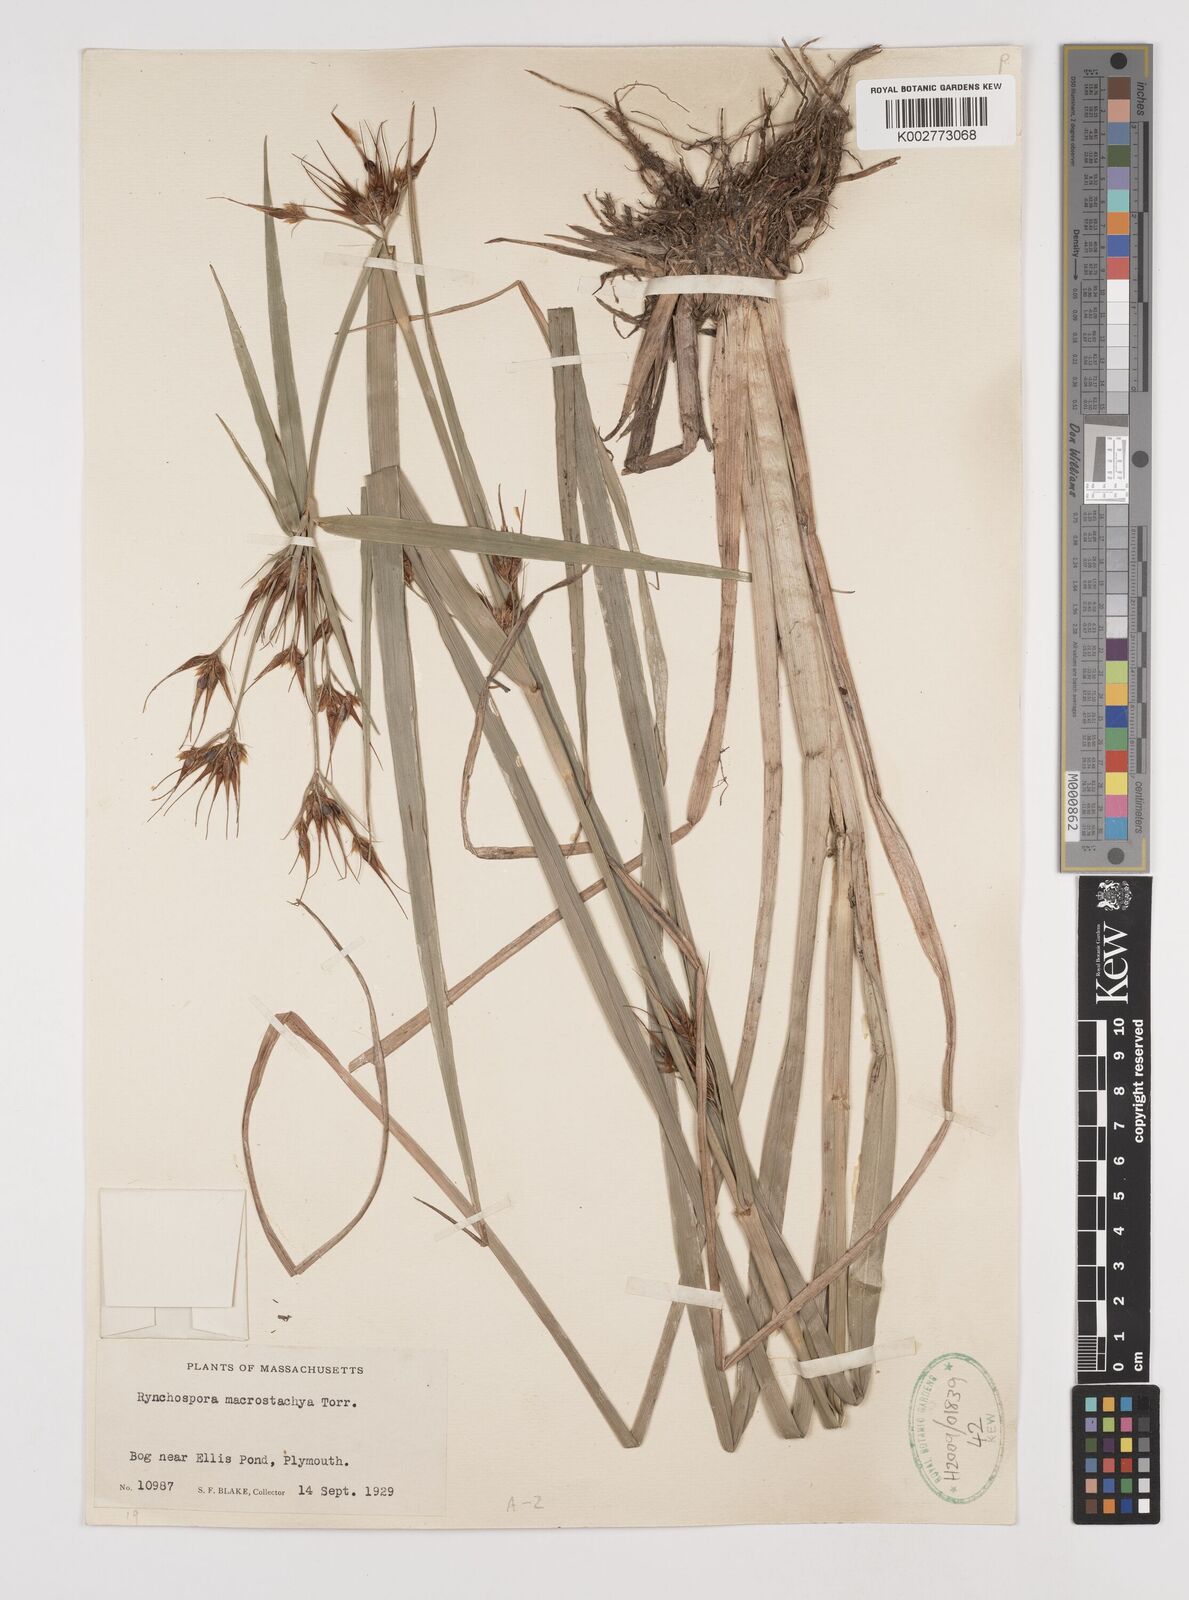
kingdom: Plantae
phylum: Tracheophyta
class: Liliopsida
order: Poales
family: Cyperaceae
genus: Rhynchospora
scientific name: Rhynchospora macrostachya
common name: Tall beakrush
